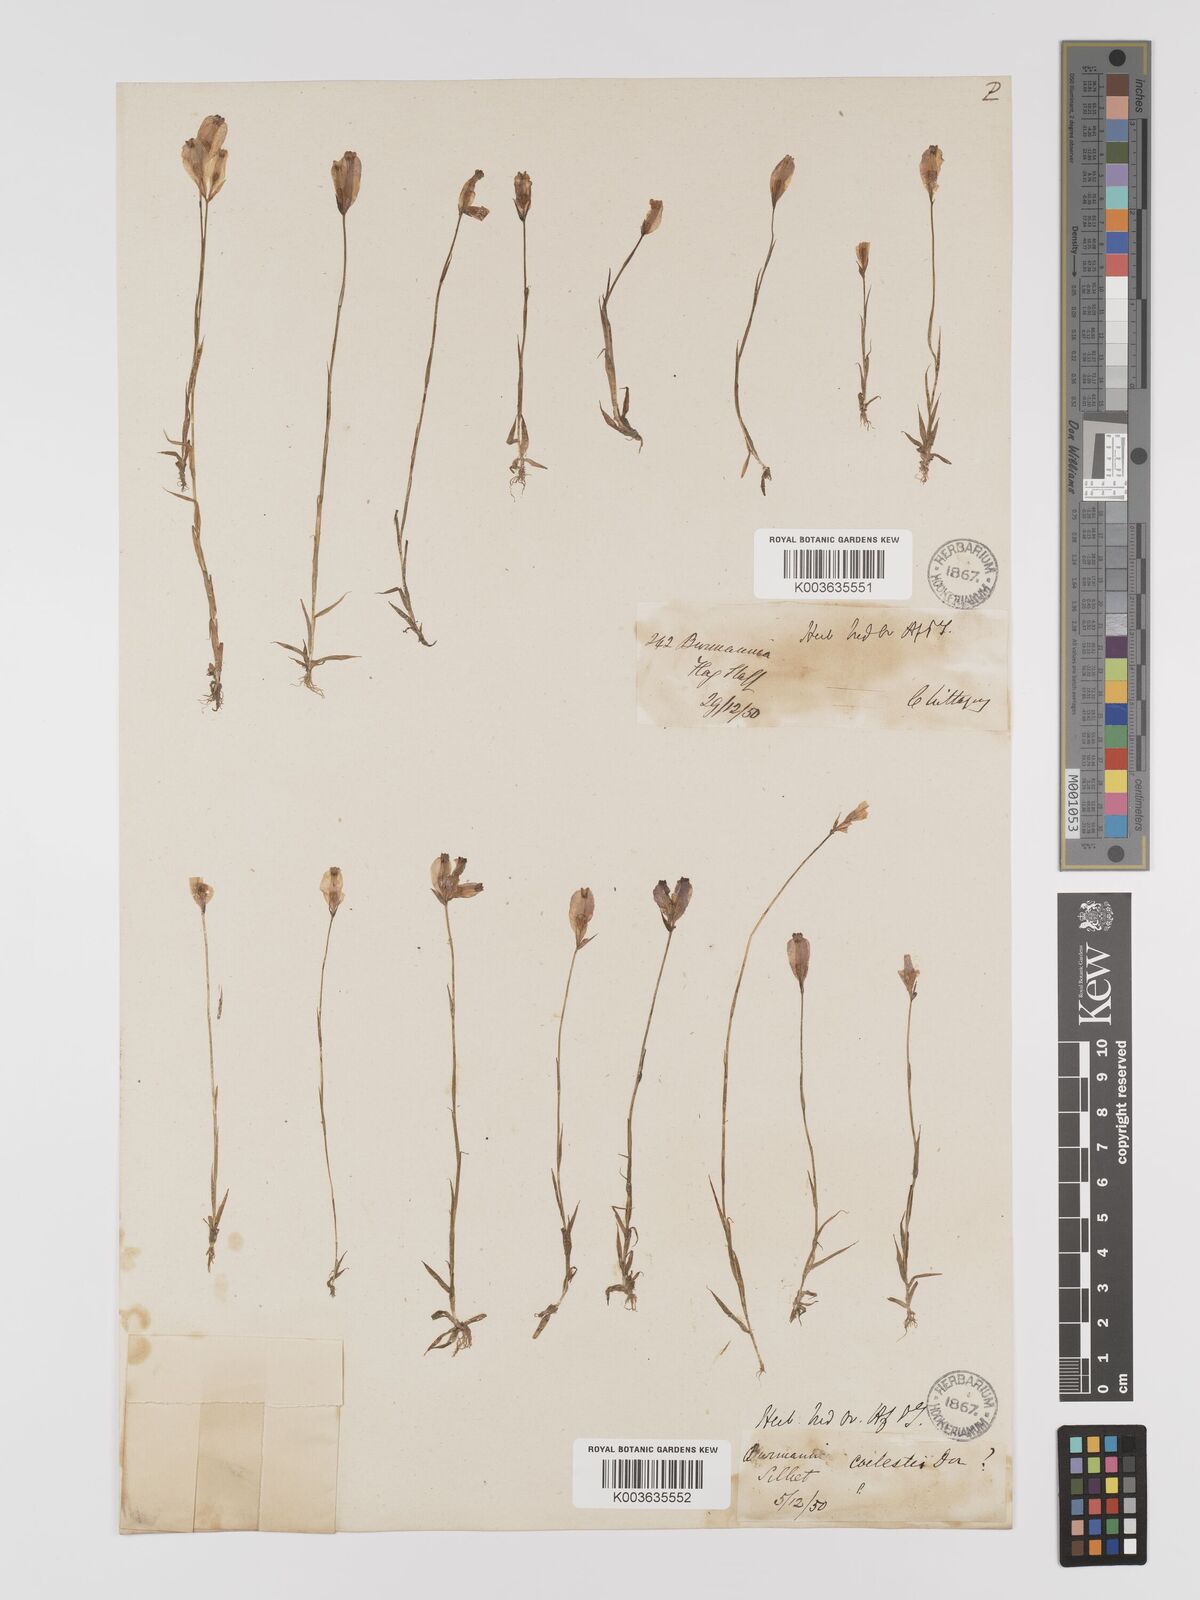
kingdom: Plantae
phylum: Tracheophyta
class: Liliopsida
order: Dioscoreales
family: Burmanniaceae
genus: Burmannia
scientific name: Burmannia coelestis
